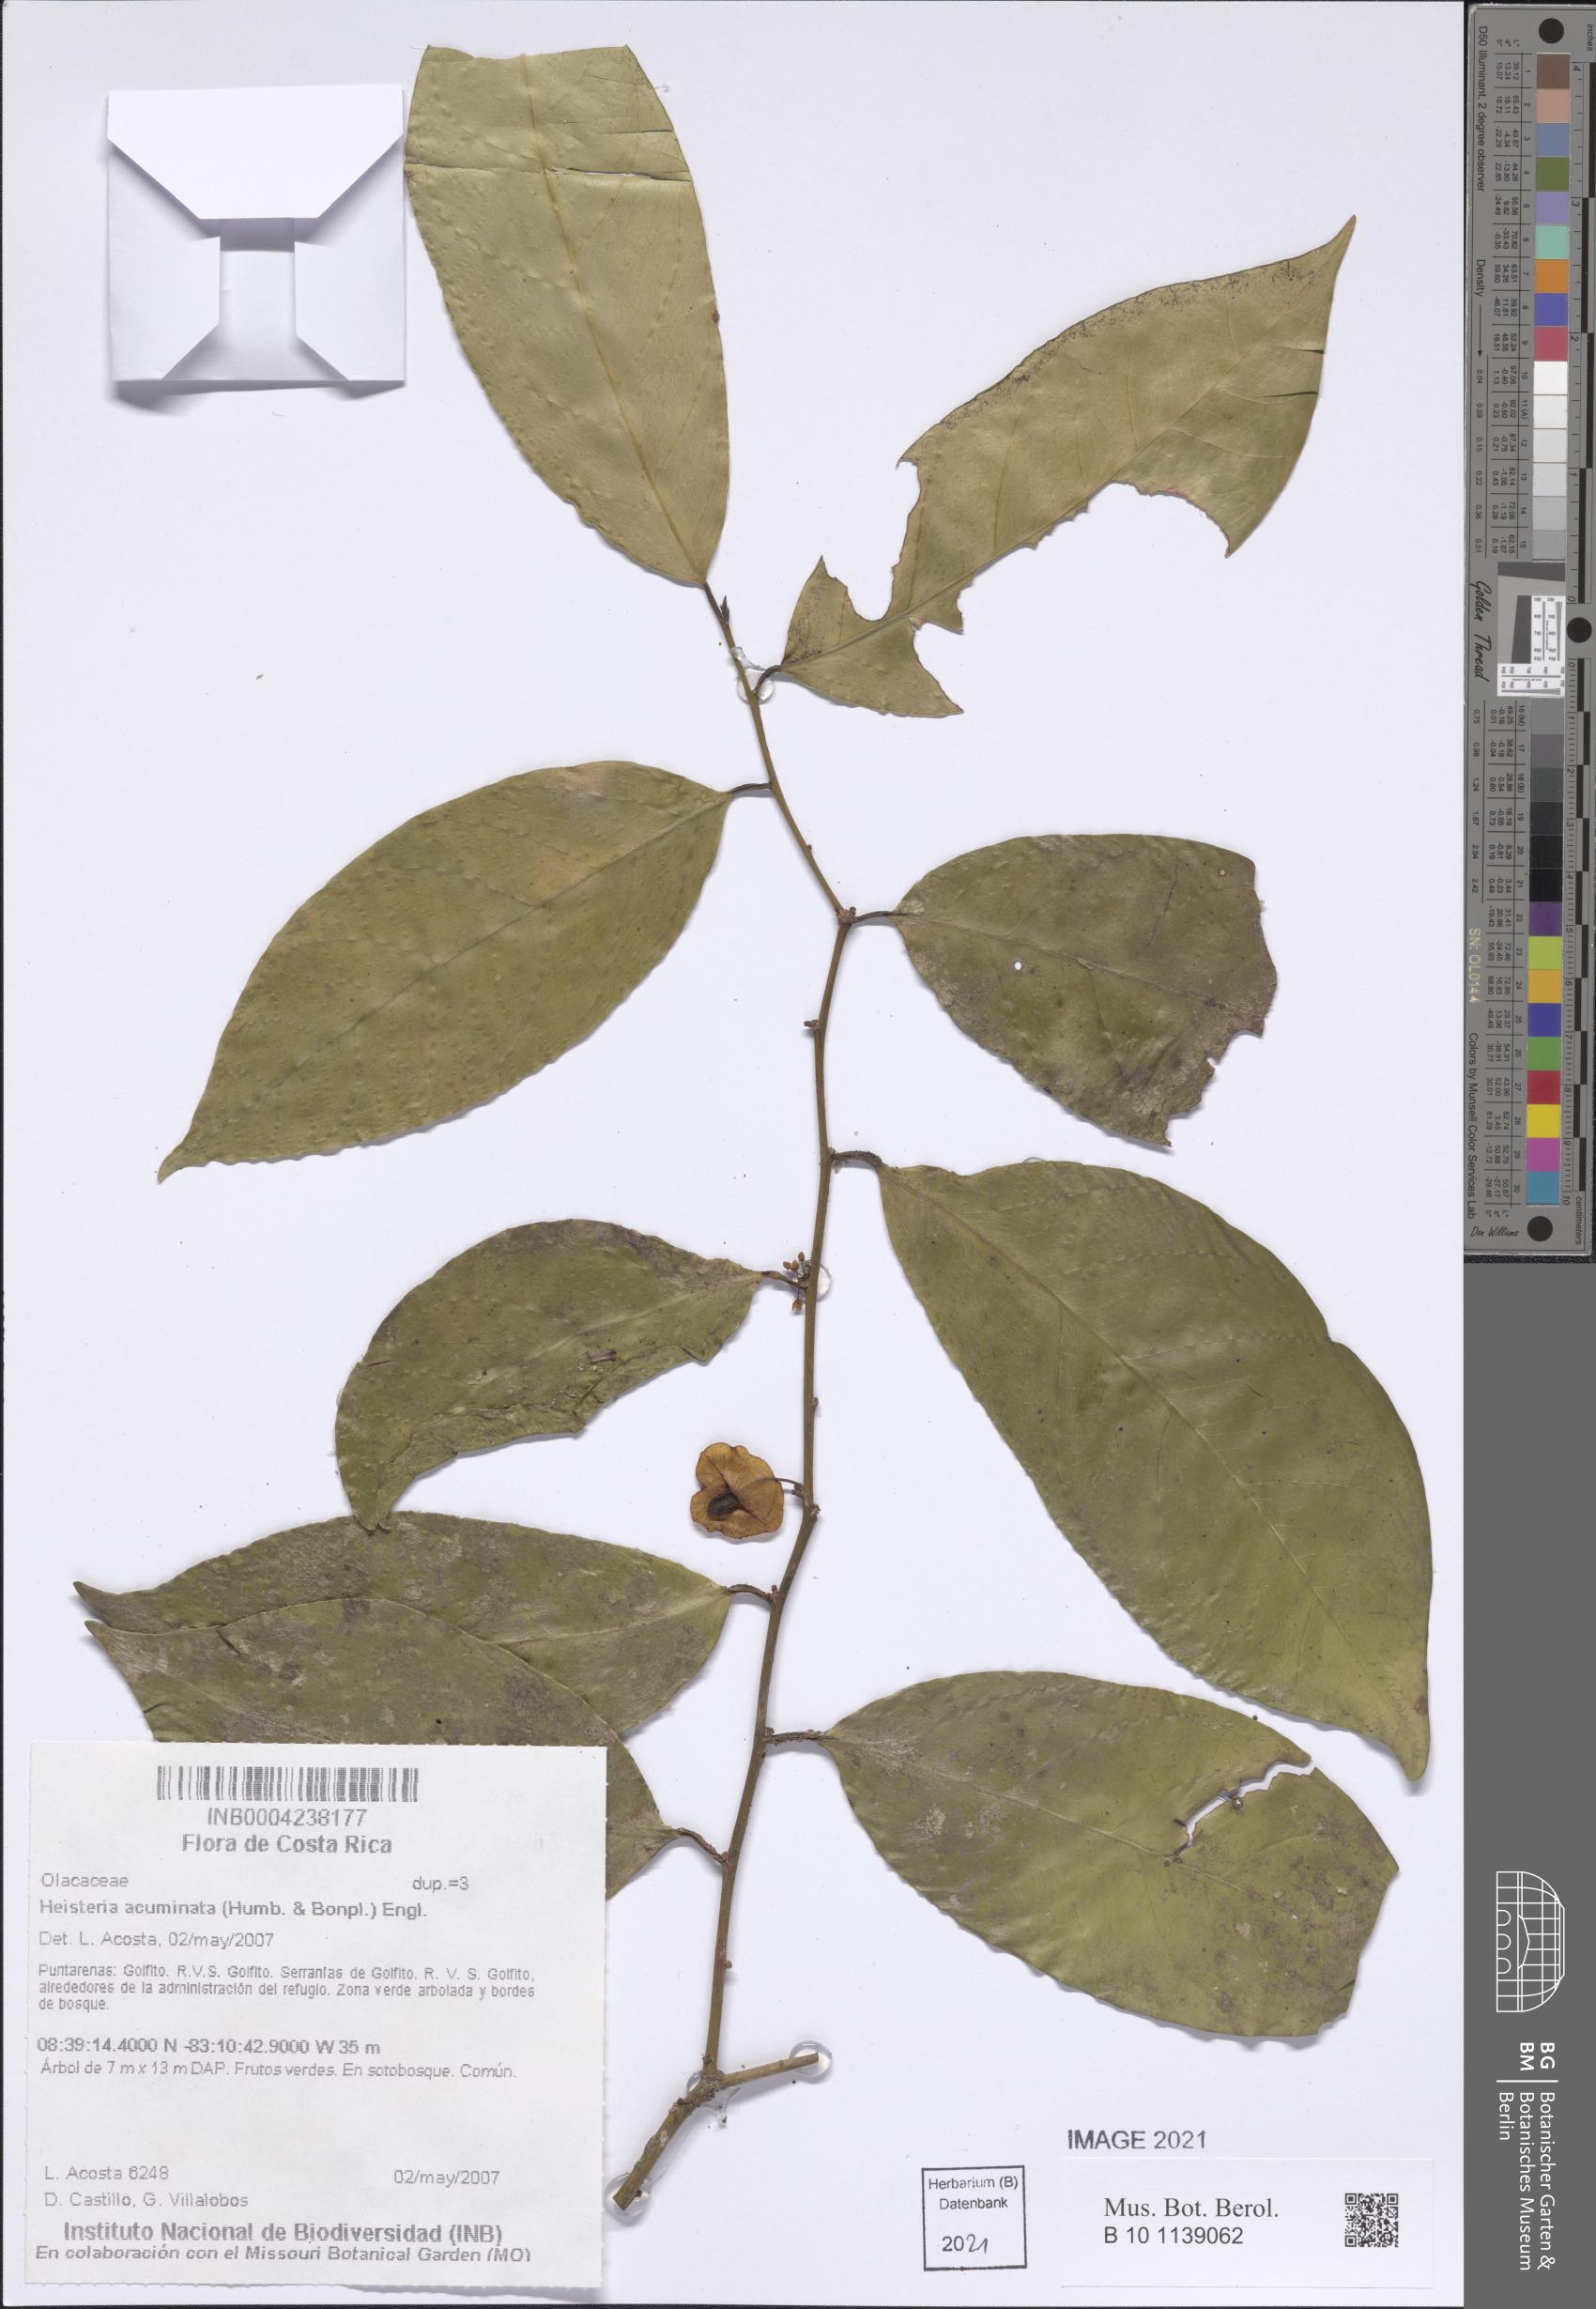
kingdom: Plantae
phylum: Tracheophyta
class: Magnoliopsida
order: Santalales
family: Erythropalaceae
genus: Heisteria
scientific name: Heisteria acuminata
